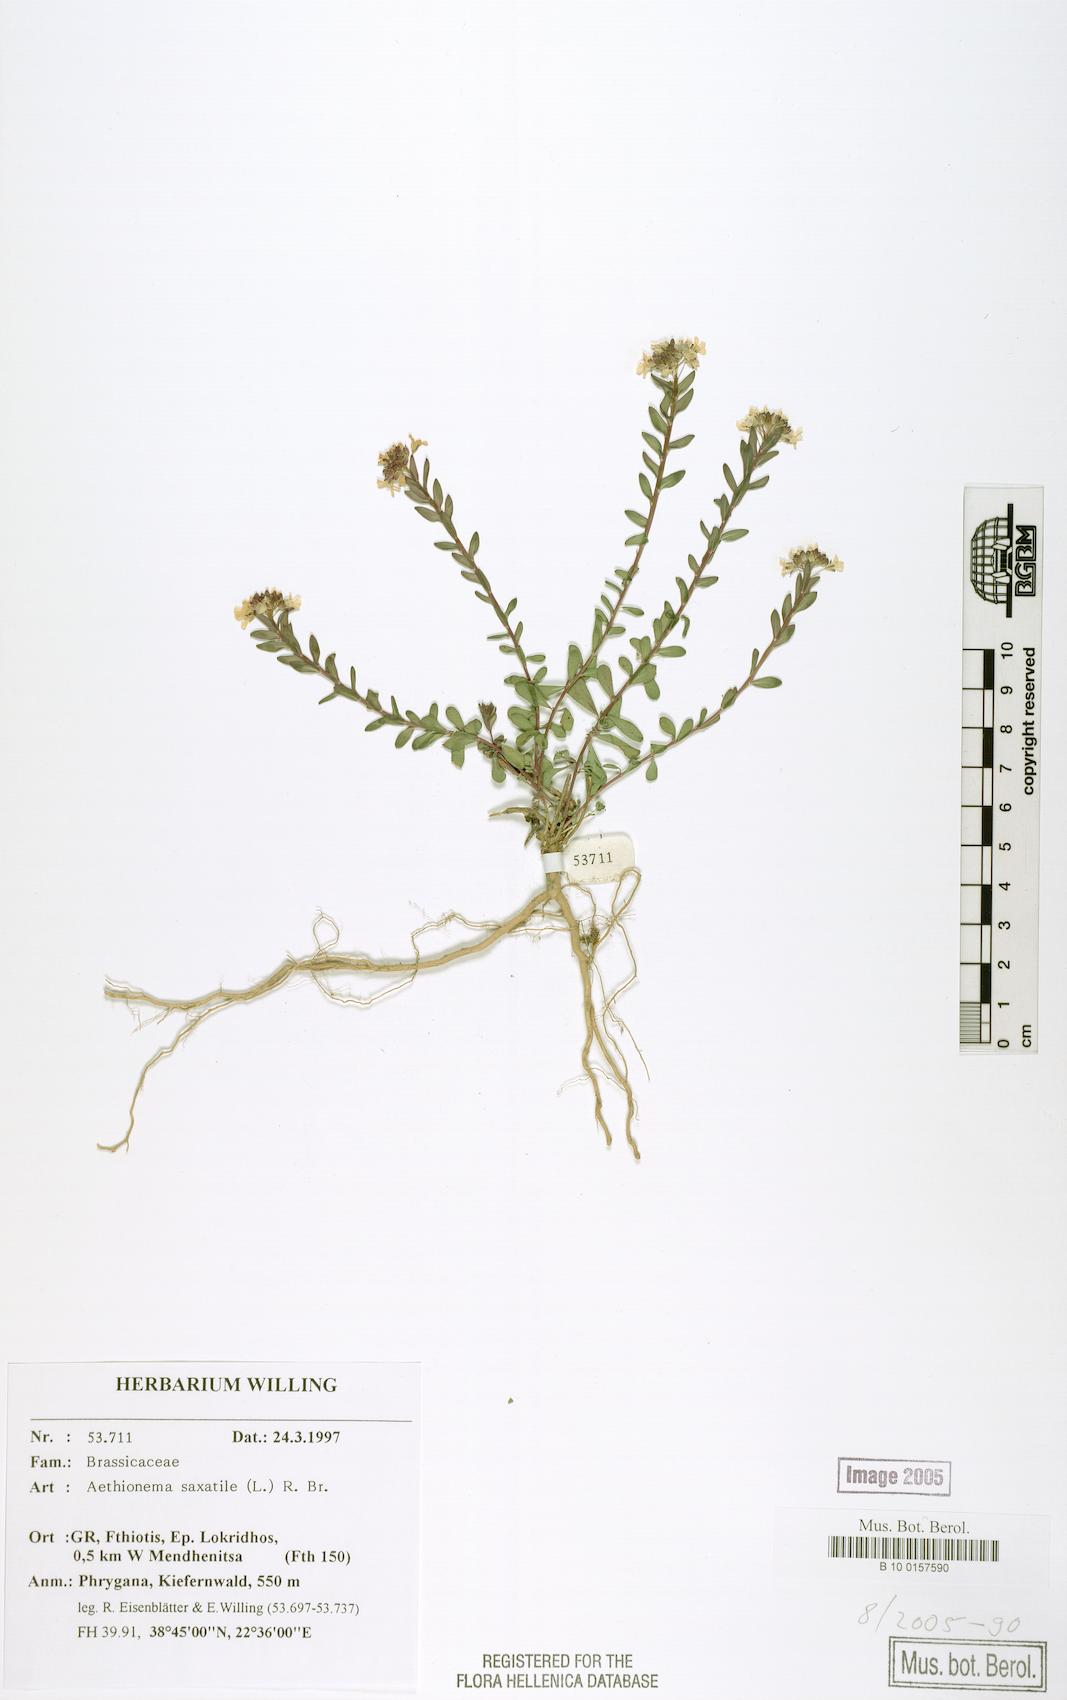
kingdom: Plantae
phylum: Tracheophyta
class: Magnoliopsida
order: Brassicales
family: Brassicaceae
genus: Aethionema
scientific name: Aethionema saxatile
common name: Burnt candytuft
